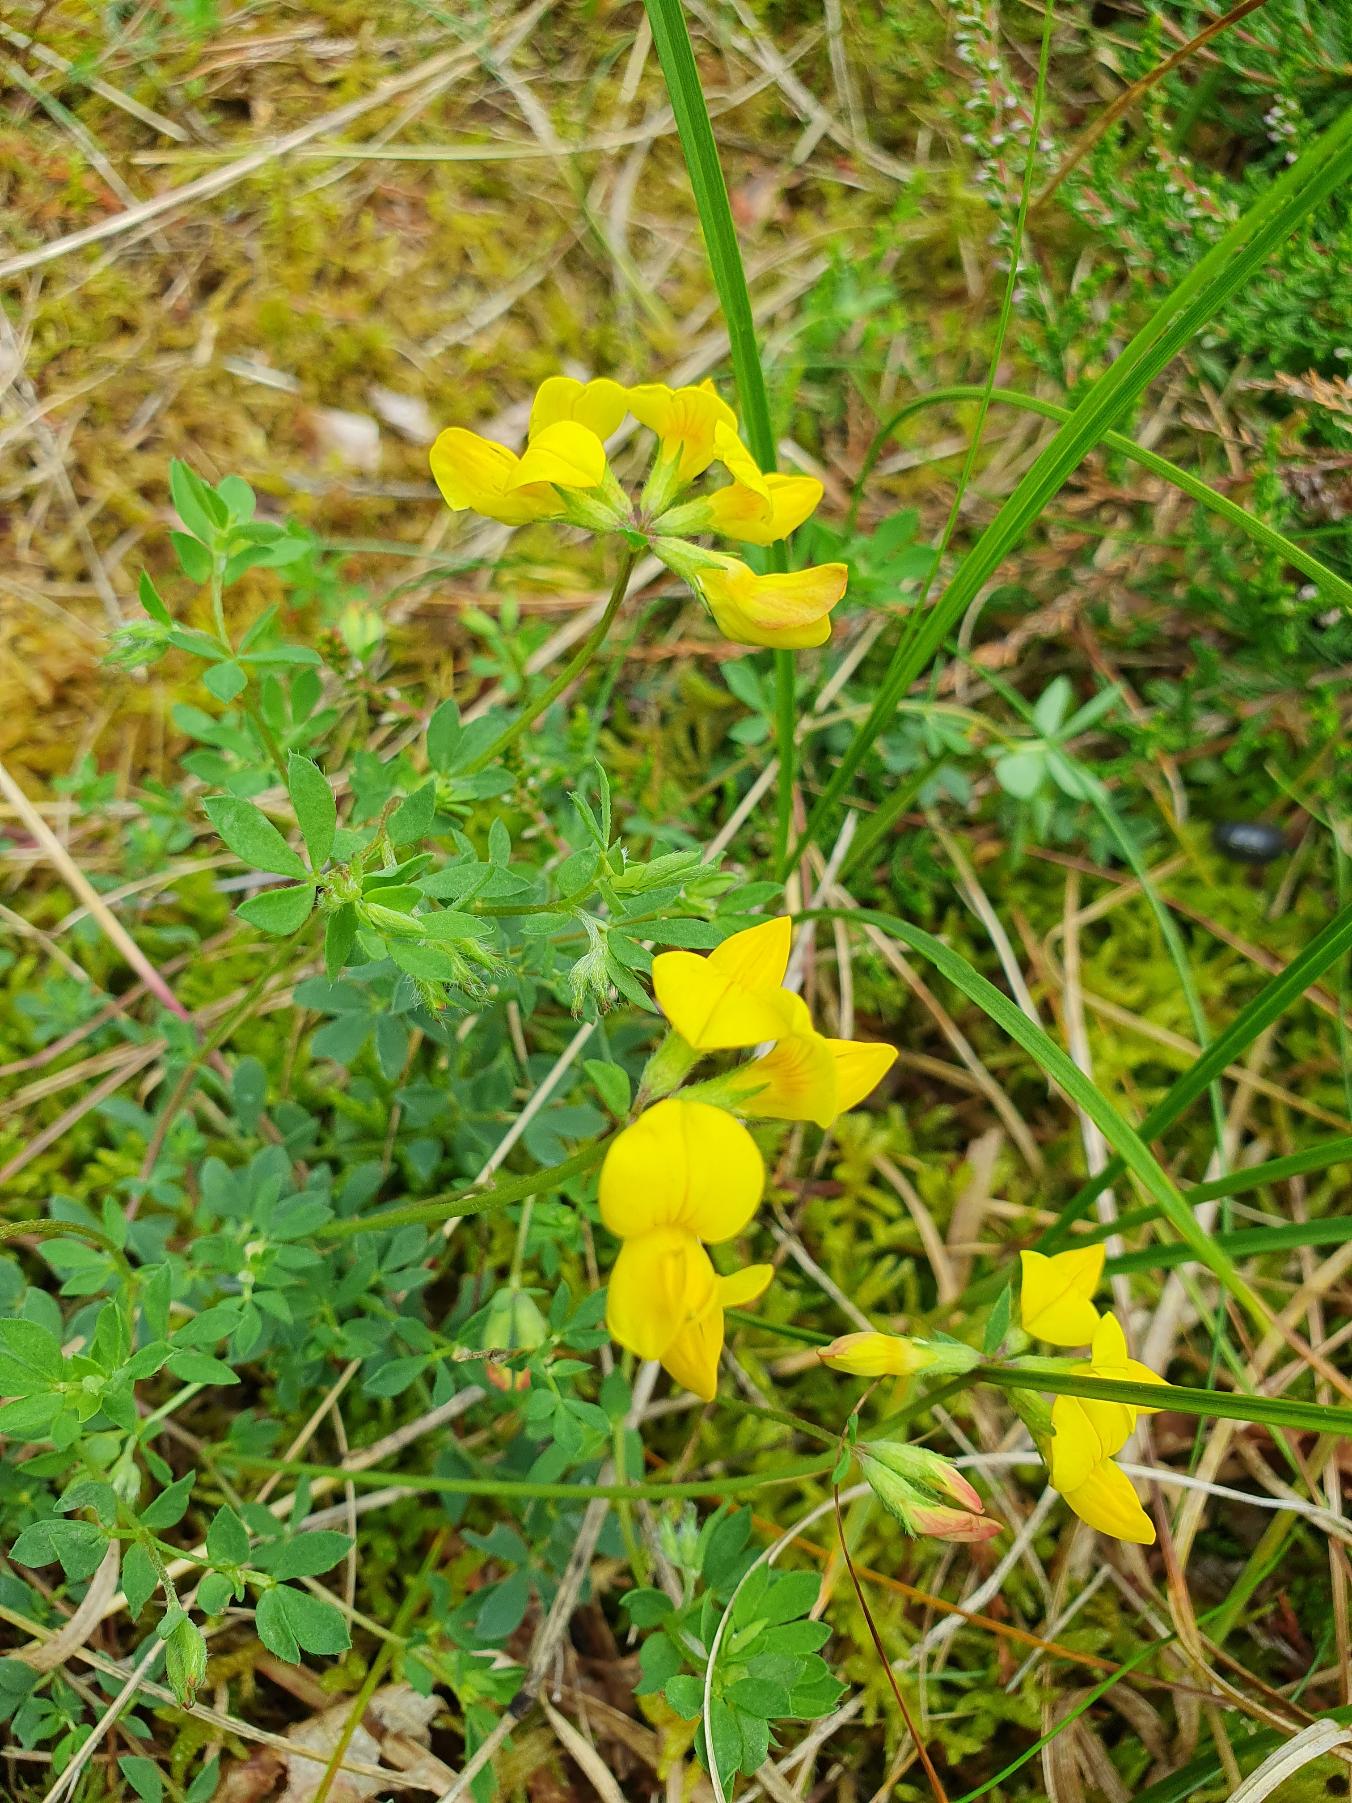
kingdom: Plantae
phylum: Tracheophyta
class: Magnoliopsida
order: Fabales
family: Fabaceae
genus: Lotus
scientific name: Lotus corniculatus
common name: Almindelig kællingetand
